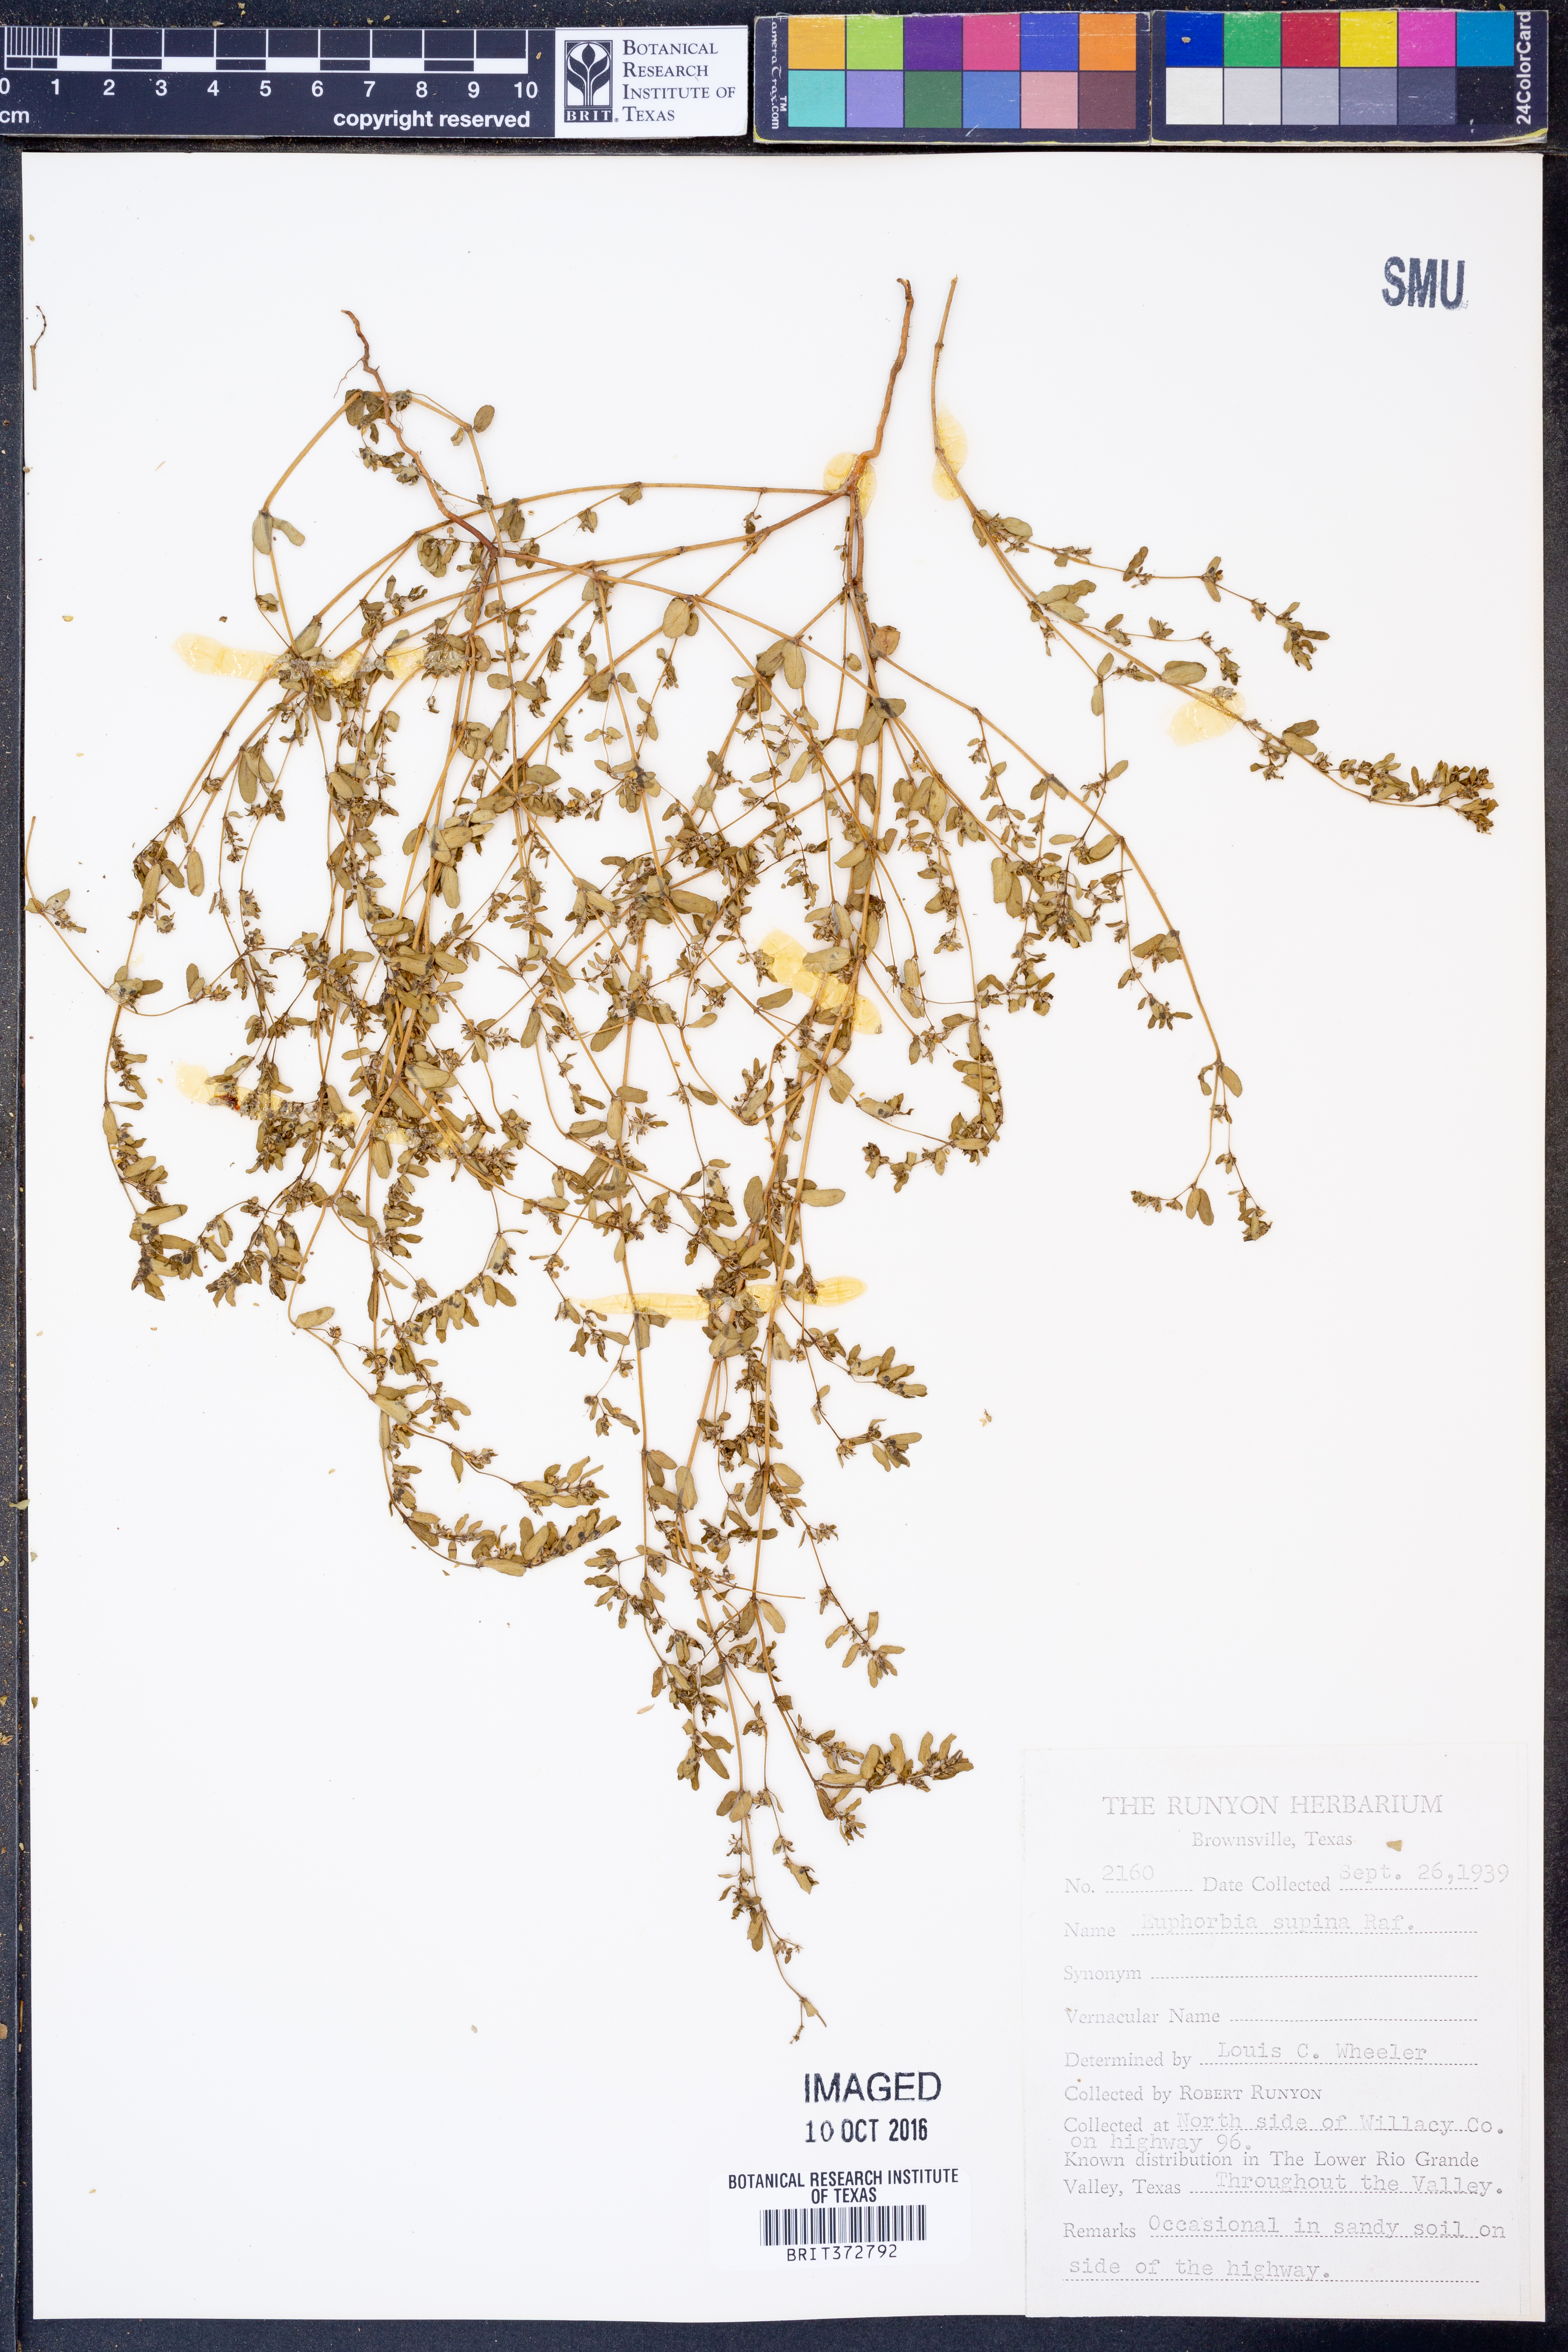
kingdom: Plantae
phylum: Tracheophyta
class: Magnoliopsida
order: Malpighiales
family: Euphorbiaceae
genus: Euphorbia
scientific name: Euphorbia maculata
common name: Spotted spurge
